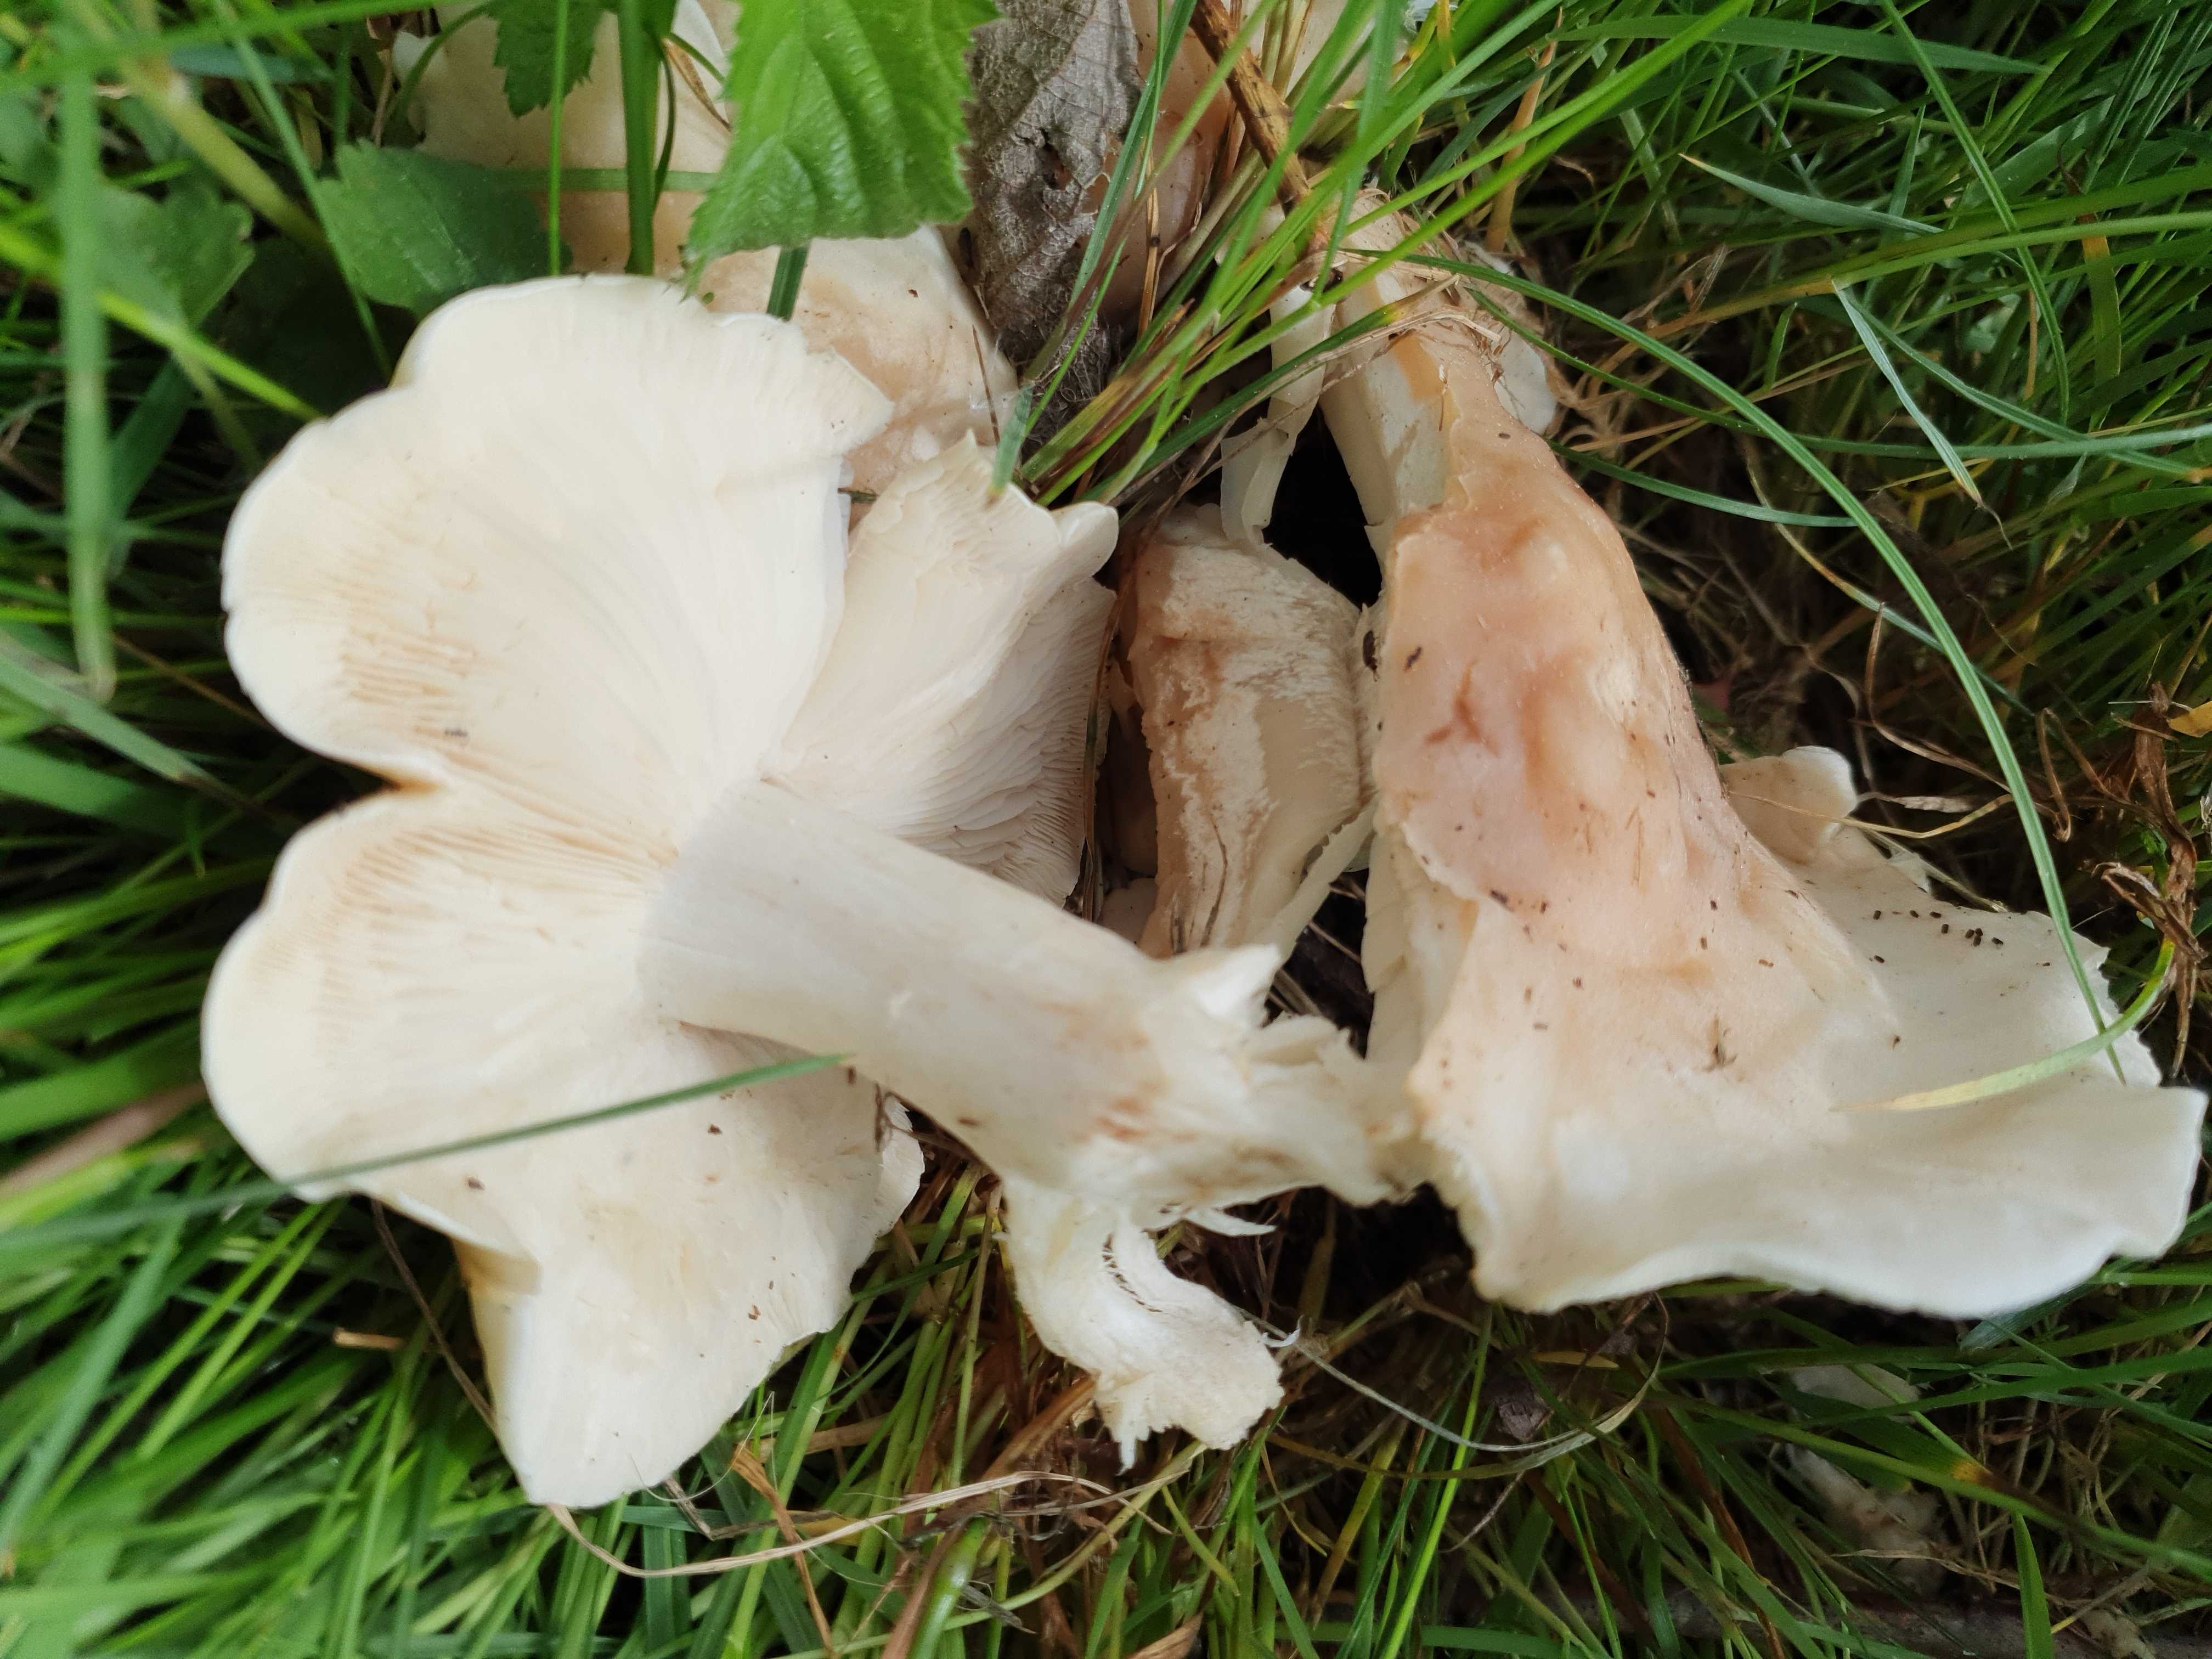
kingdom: Fungi
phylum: Basidiomycota
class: Agaricomycetes
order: Agaricales
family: Lyophyllaceae
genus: Calocybe
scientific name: Calocybe gambosa
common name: vårmusseron
